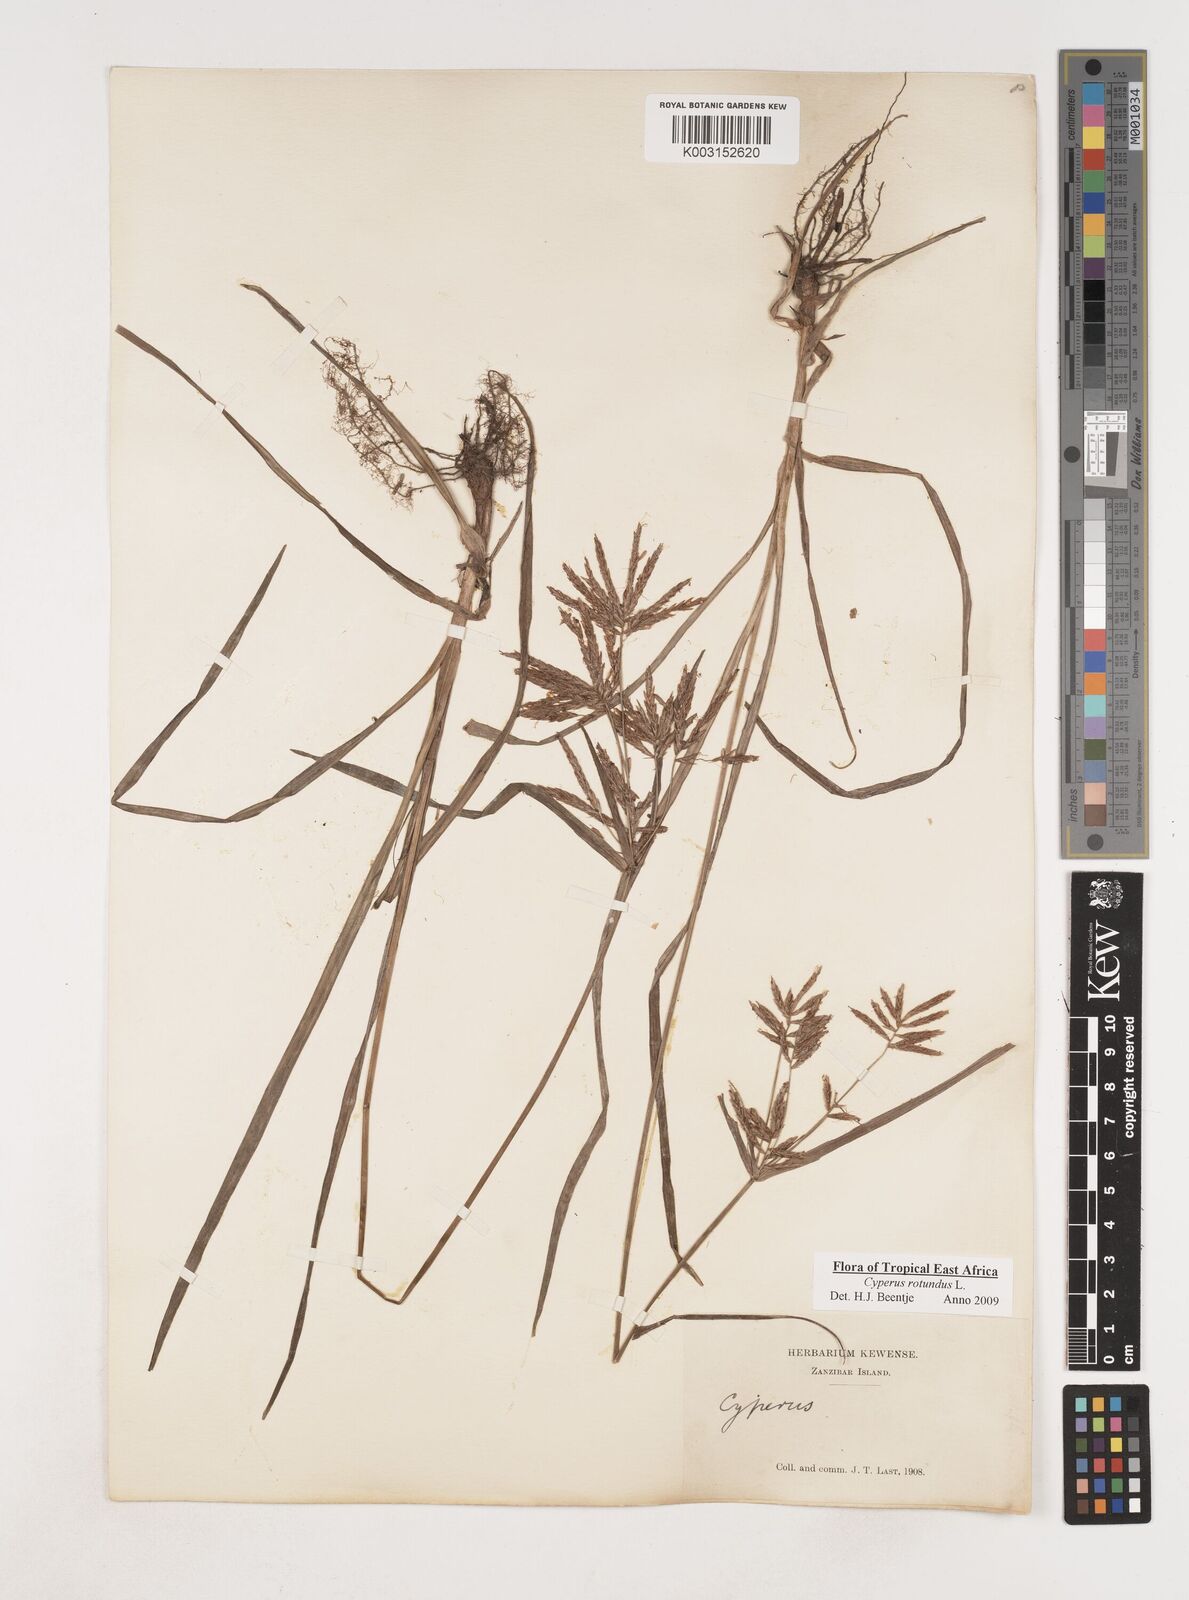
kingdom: Plantae
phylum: Tracheophyta
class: Liliopsida
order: Poales
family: Cyperaceae
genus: Cyperus
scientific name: Cyperus rotundus
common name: Nutgrass
